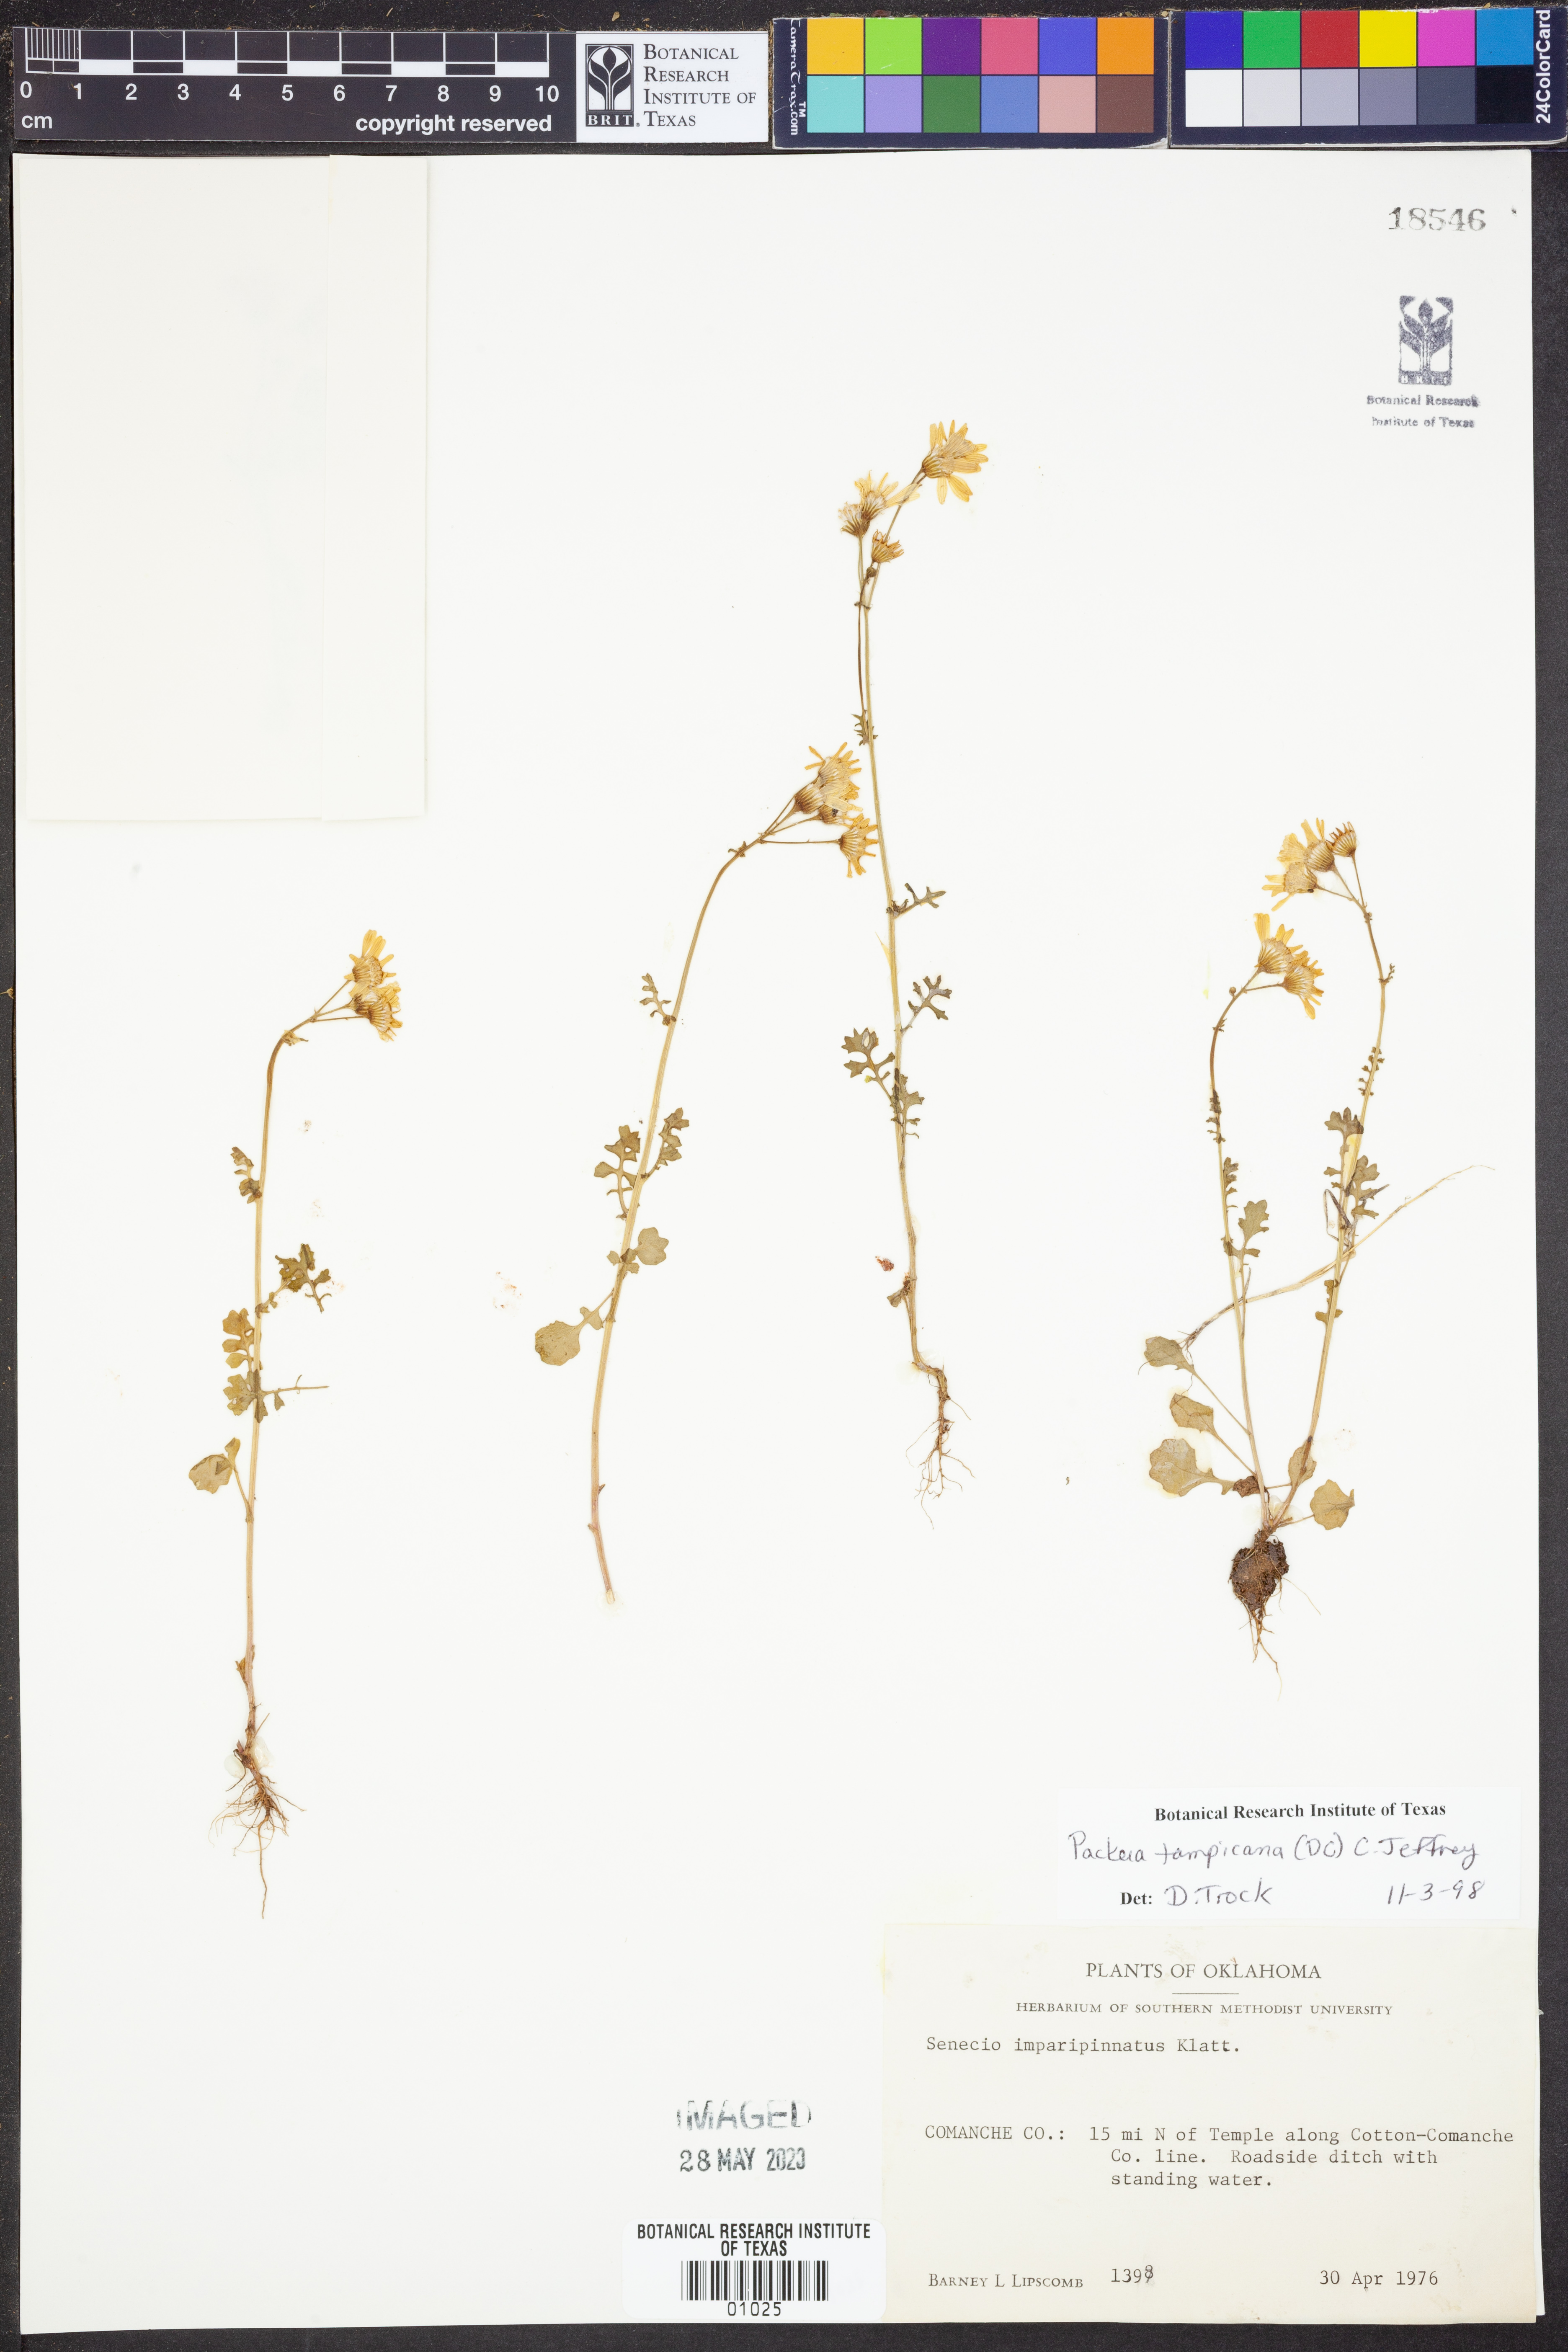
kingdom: Plantae
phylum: Tracheophyta
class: Magnoliopsida
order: Asterales
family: Asteraceae
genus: Packera
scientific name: Packera tampicana
